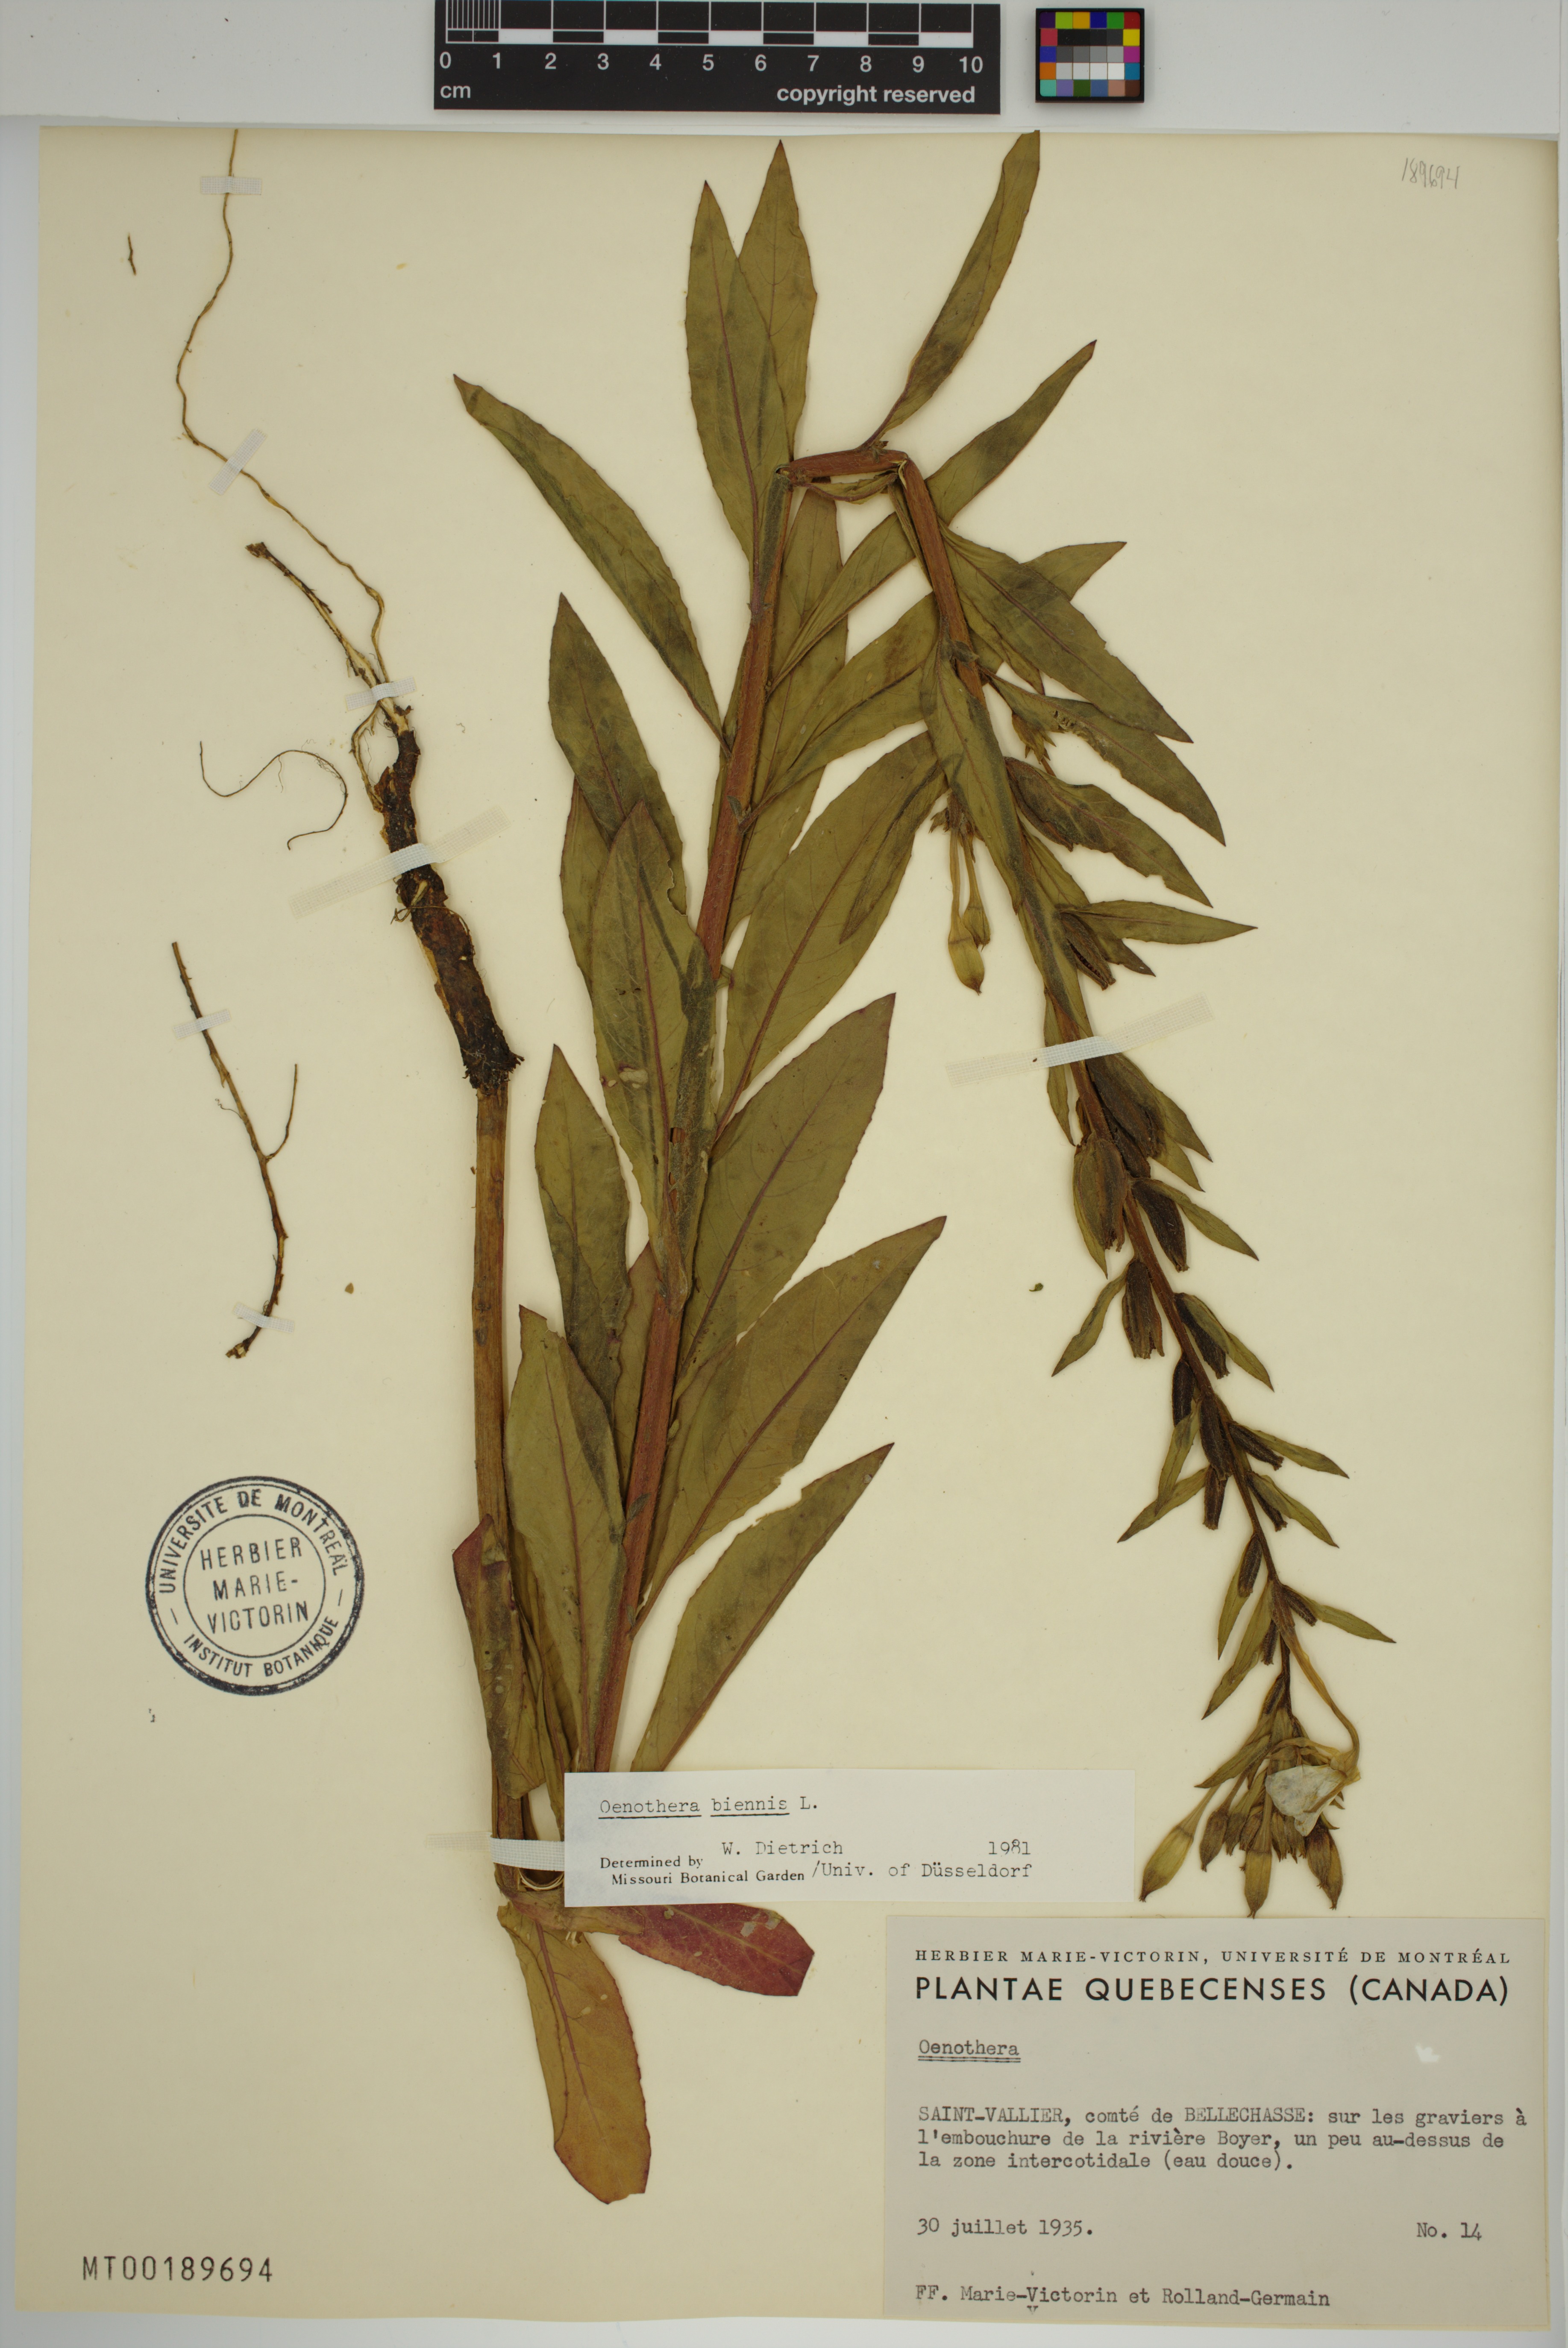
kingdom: Plantae
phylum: Tracheophyta
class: Magnoliopsida
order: Myrtales
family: Onagraceae
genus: Oenothera
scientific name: Oenothera biennis
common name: Common evening-primrose
